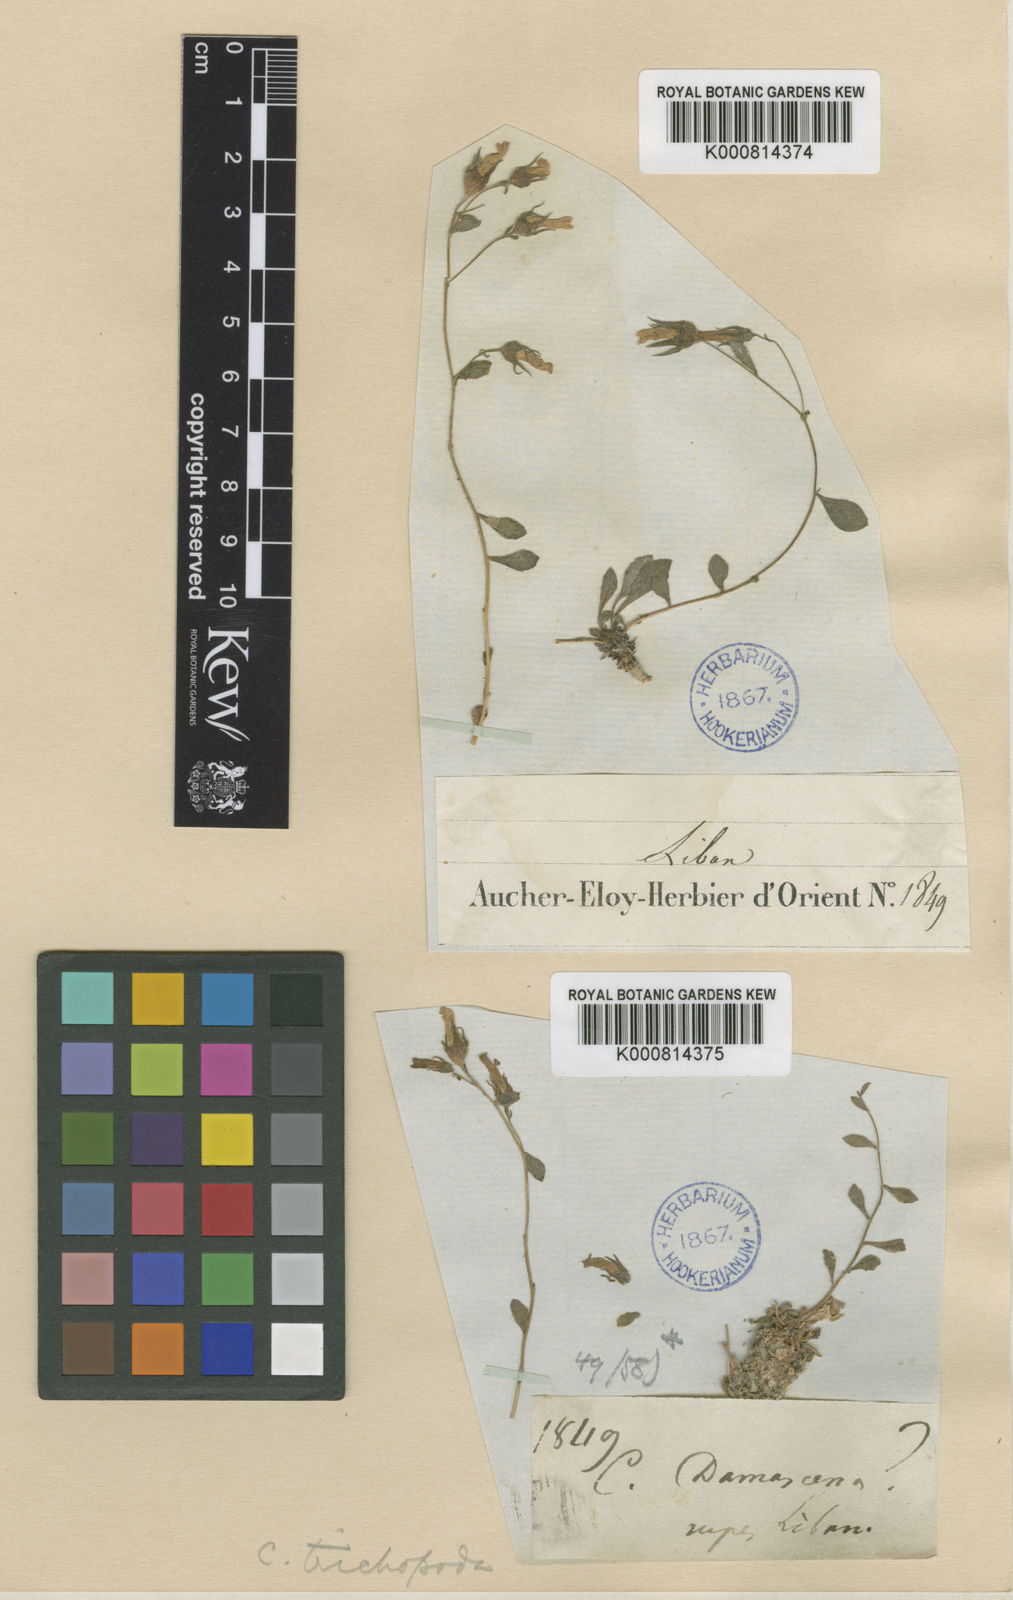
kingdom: Plantae
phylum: Tracheophyta
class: Magnoliopsida
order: Asterales
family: Campanulaceae
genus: Campanula
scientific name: Campanula trichopoda
